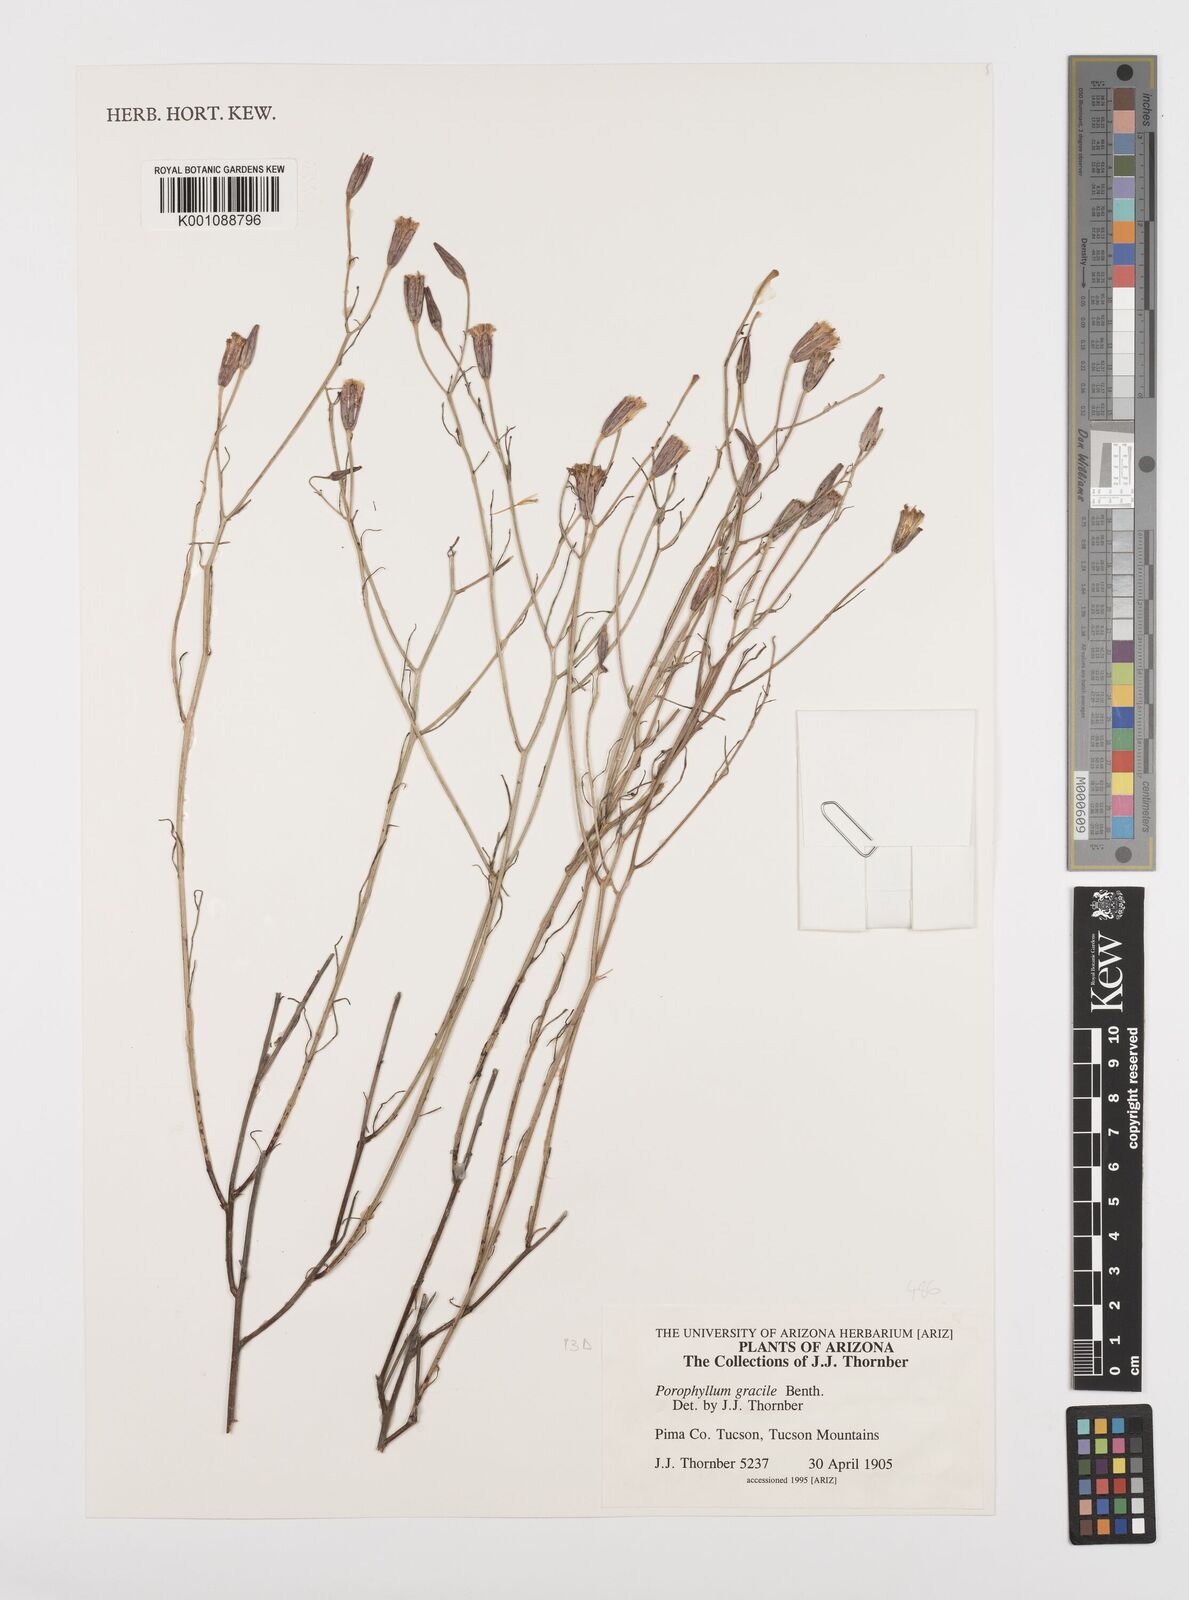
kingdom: Plantae
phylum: Tracheophyta
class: Magnoliopsida
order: Asterales
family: Asteraceae
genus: Porophyllum
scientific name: Porophyllum gracile
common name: Odora
